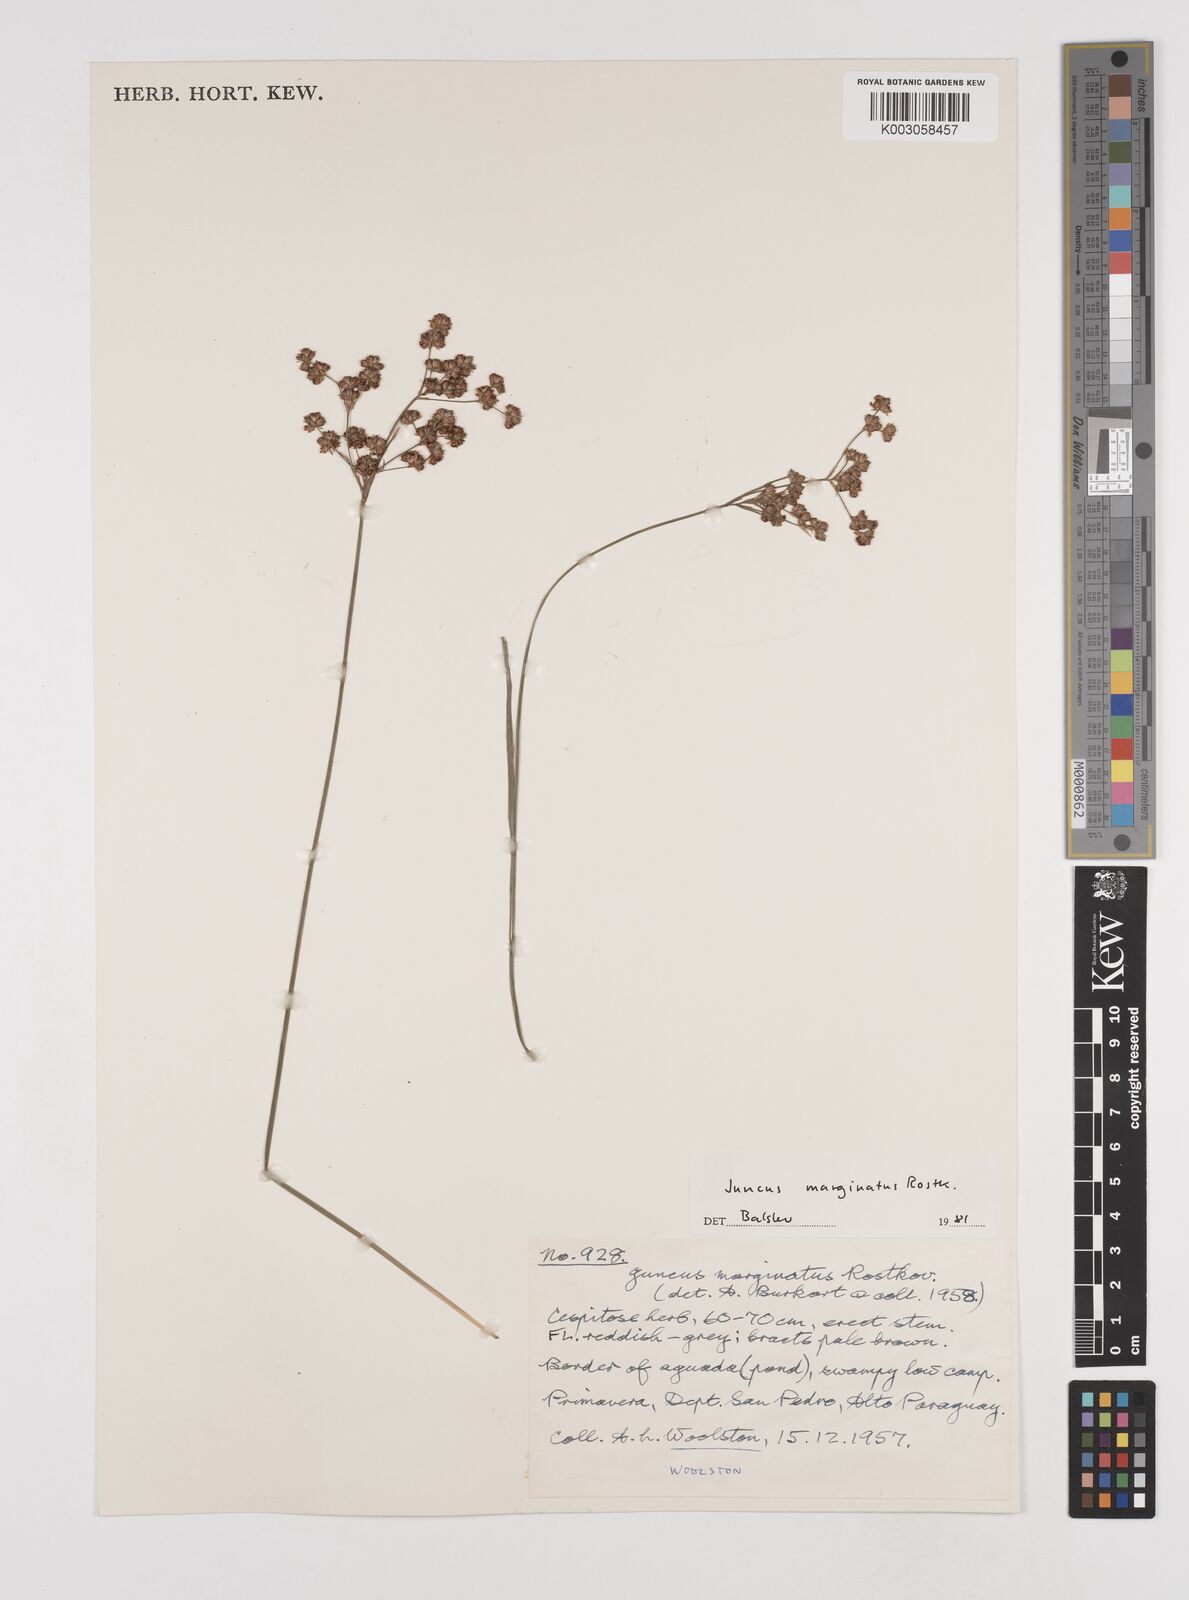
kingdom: Plantae
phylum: Tracheophyta
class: Liliopsida
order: Poales
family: Juncaceae
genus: Juncus
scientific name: Juncus marginatus
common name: Grass-leaf rush
